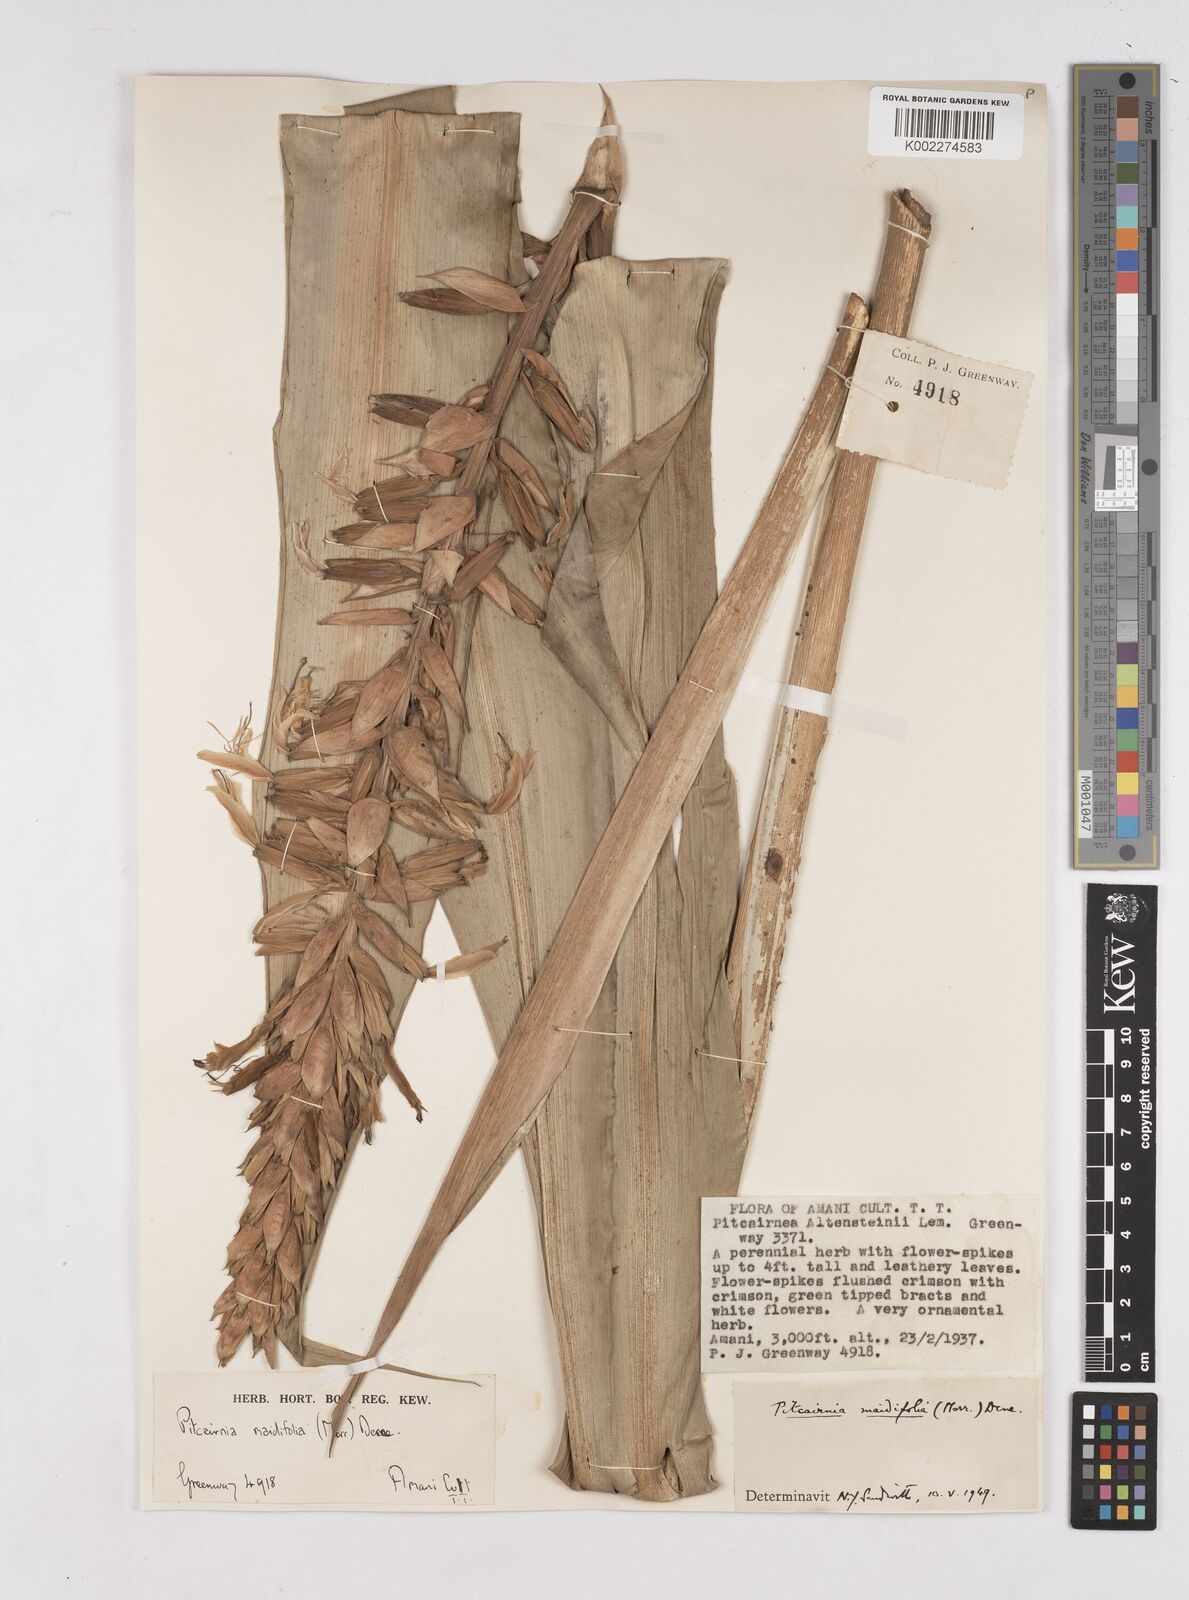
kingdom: Plantae
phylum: Tracheophyta
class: Liliopsida
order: Poales
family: Bromeliaceae
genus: Pitcairnia
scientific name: Pitcairnia maidifolia
